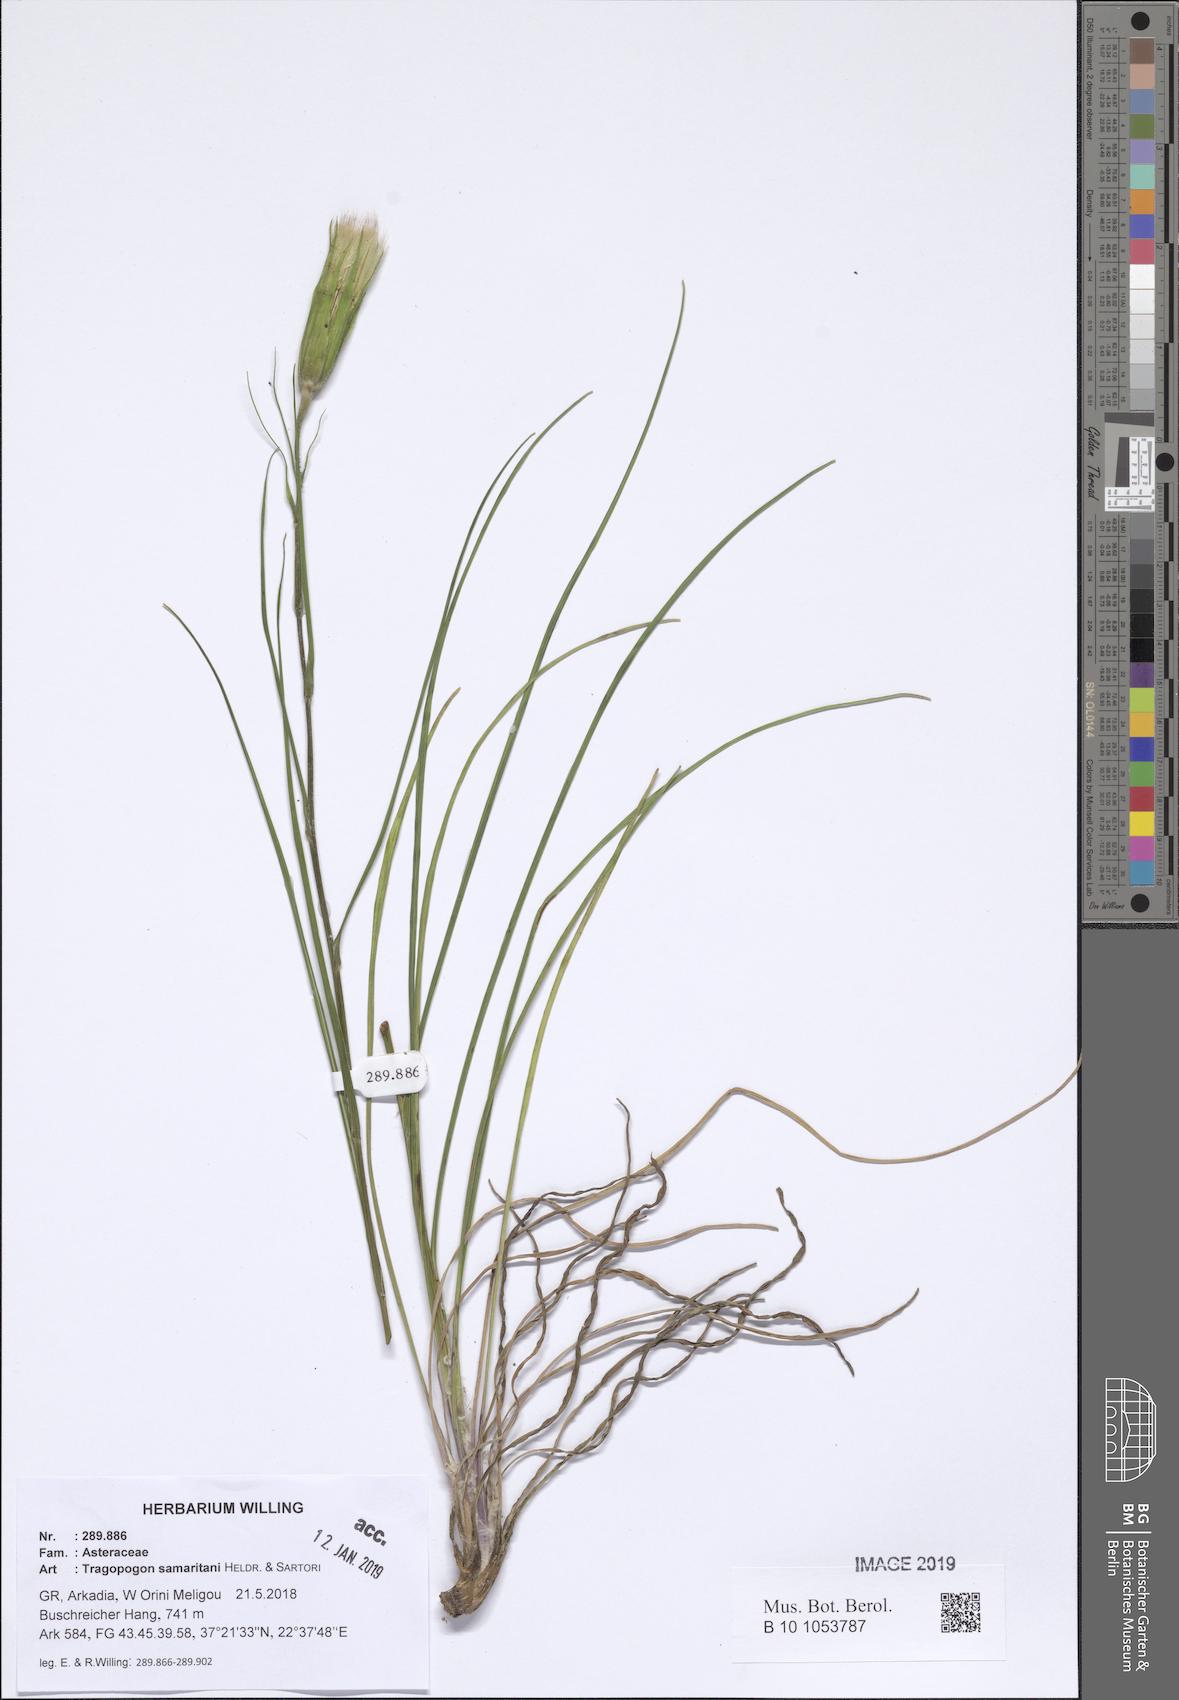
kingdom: Plantae
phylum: Tracheophyta
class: Magnoliopsida
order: Asterales
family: Asteraceae
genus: Tragopogon
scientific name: Tragopogon samaritani
